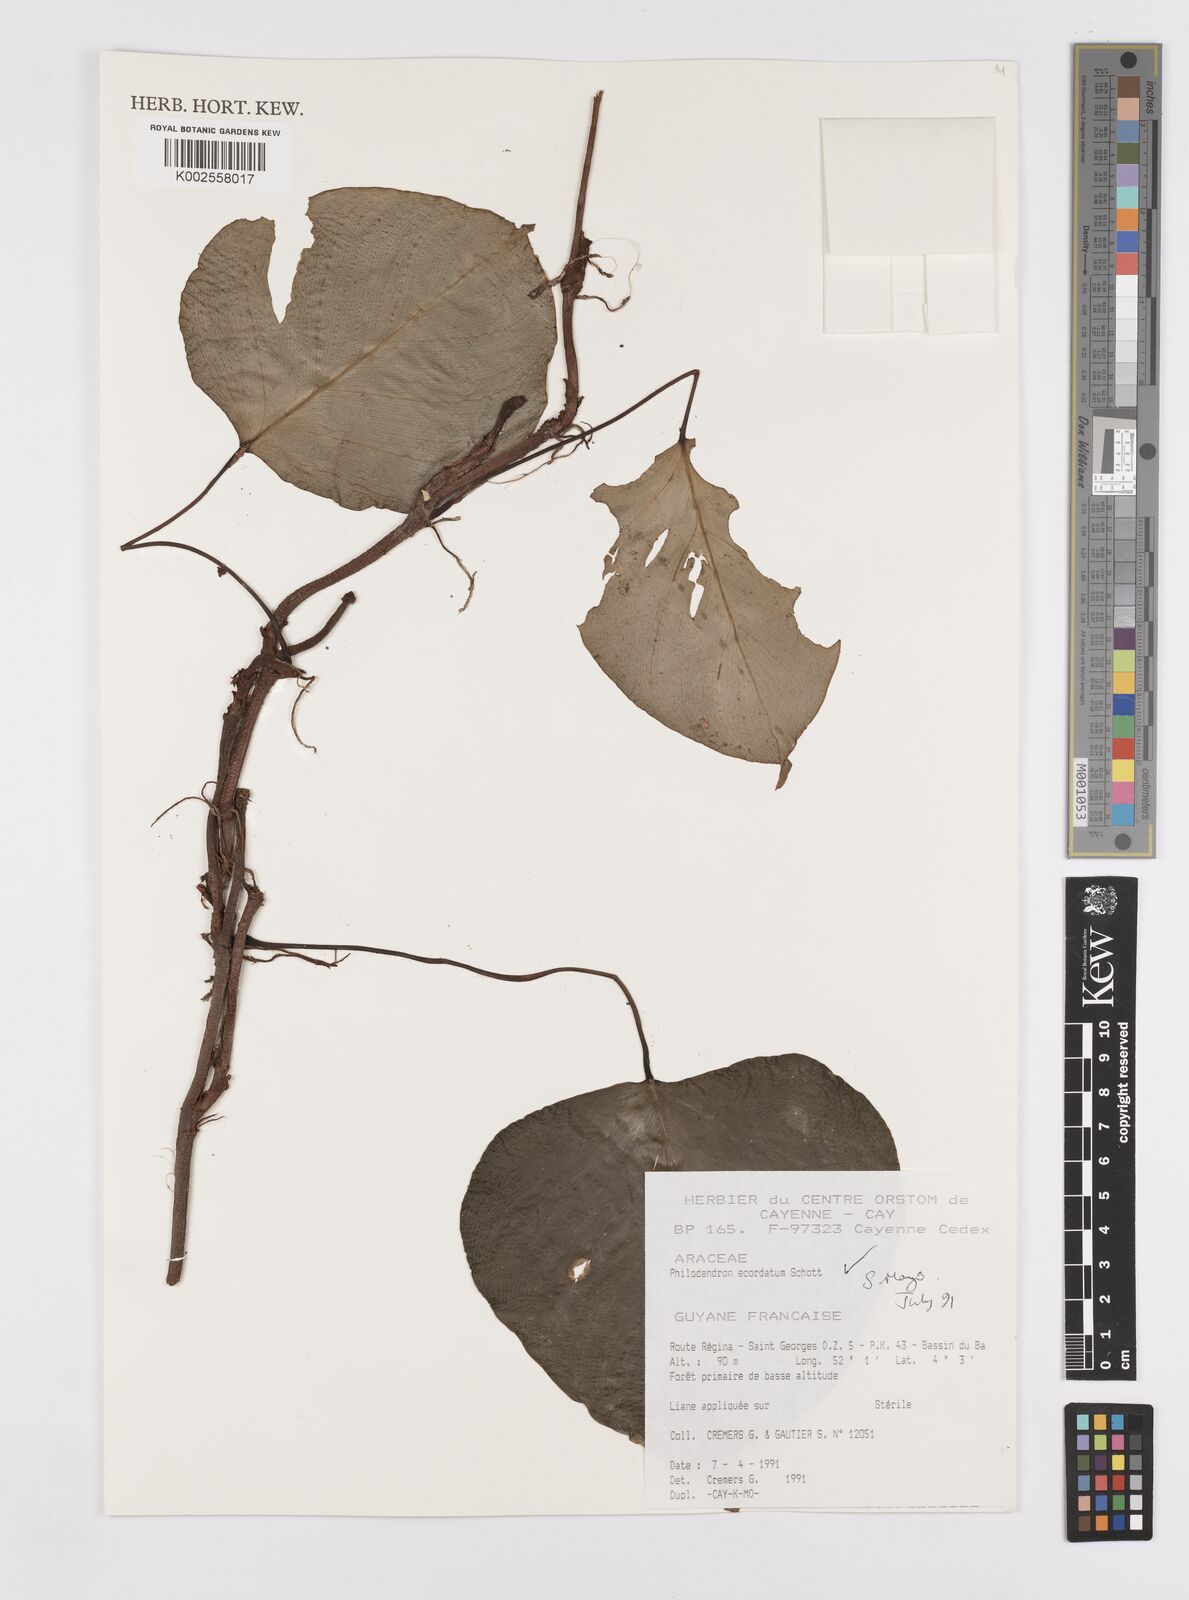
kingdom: Plantae
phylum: Tracheophyta
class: Liliopsida
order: Alismatales
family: Araceae
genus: Philodendron
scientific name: Philodendron ecordatum
